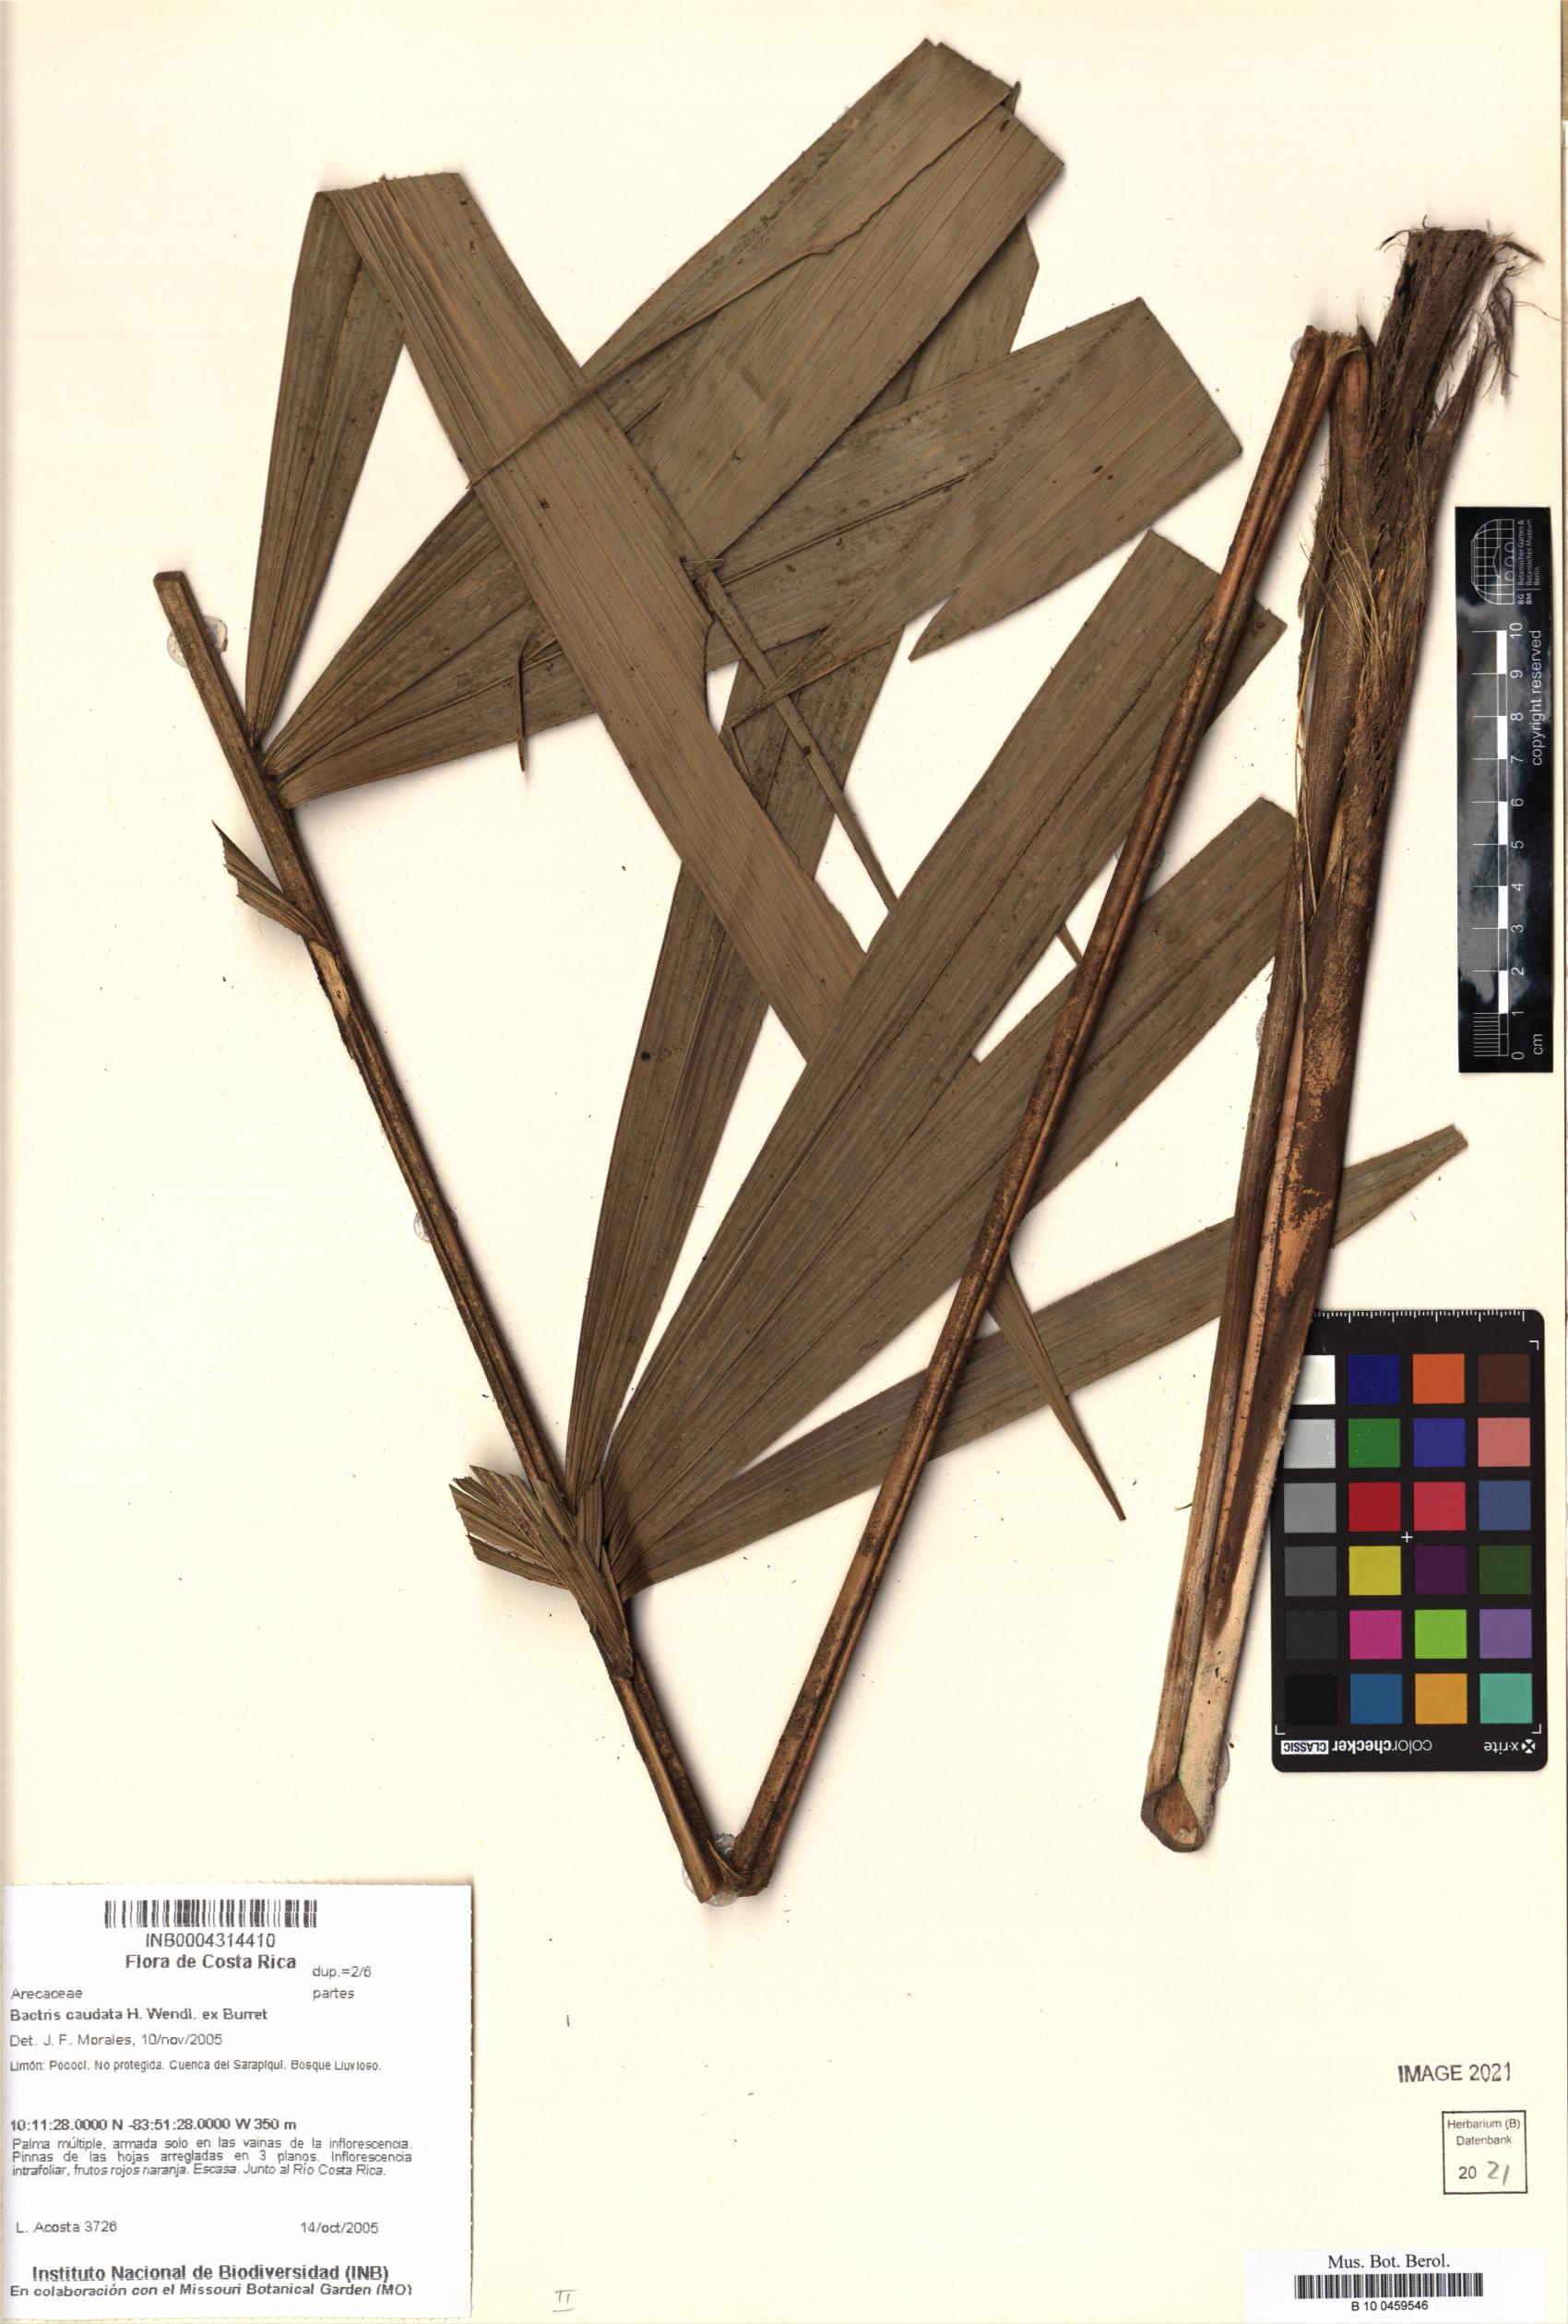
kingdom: Plantae
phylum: Tracheophyta
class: Liliopsida
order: Arecales
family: Arecaceae
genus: Bactris
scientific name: Bactris caudata
